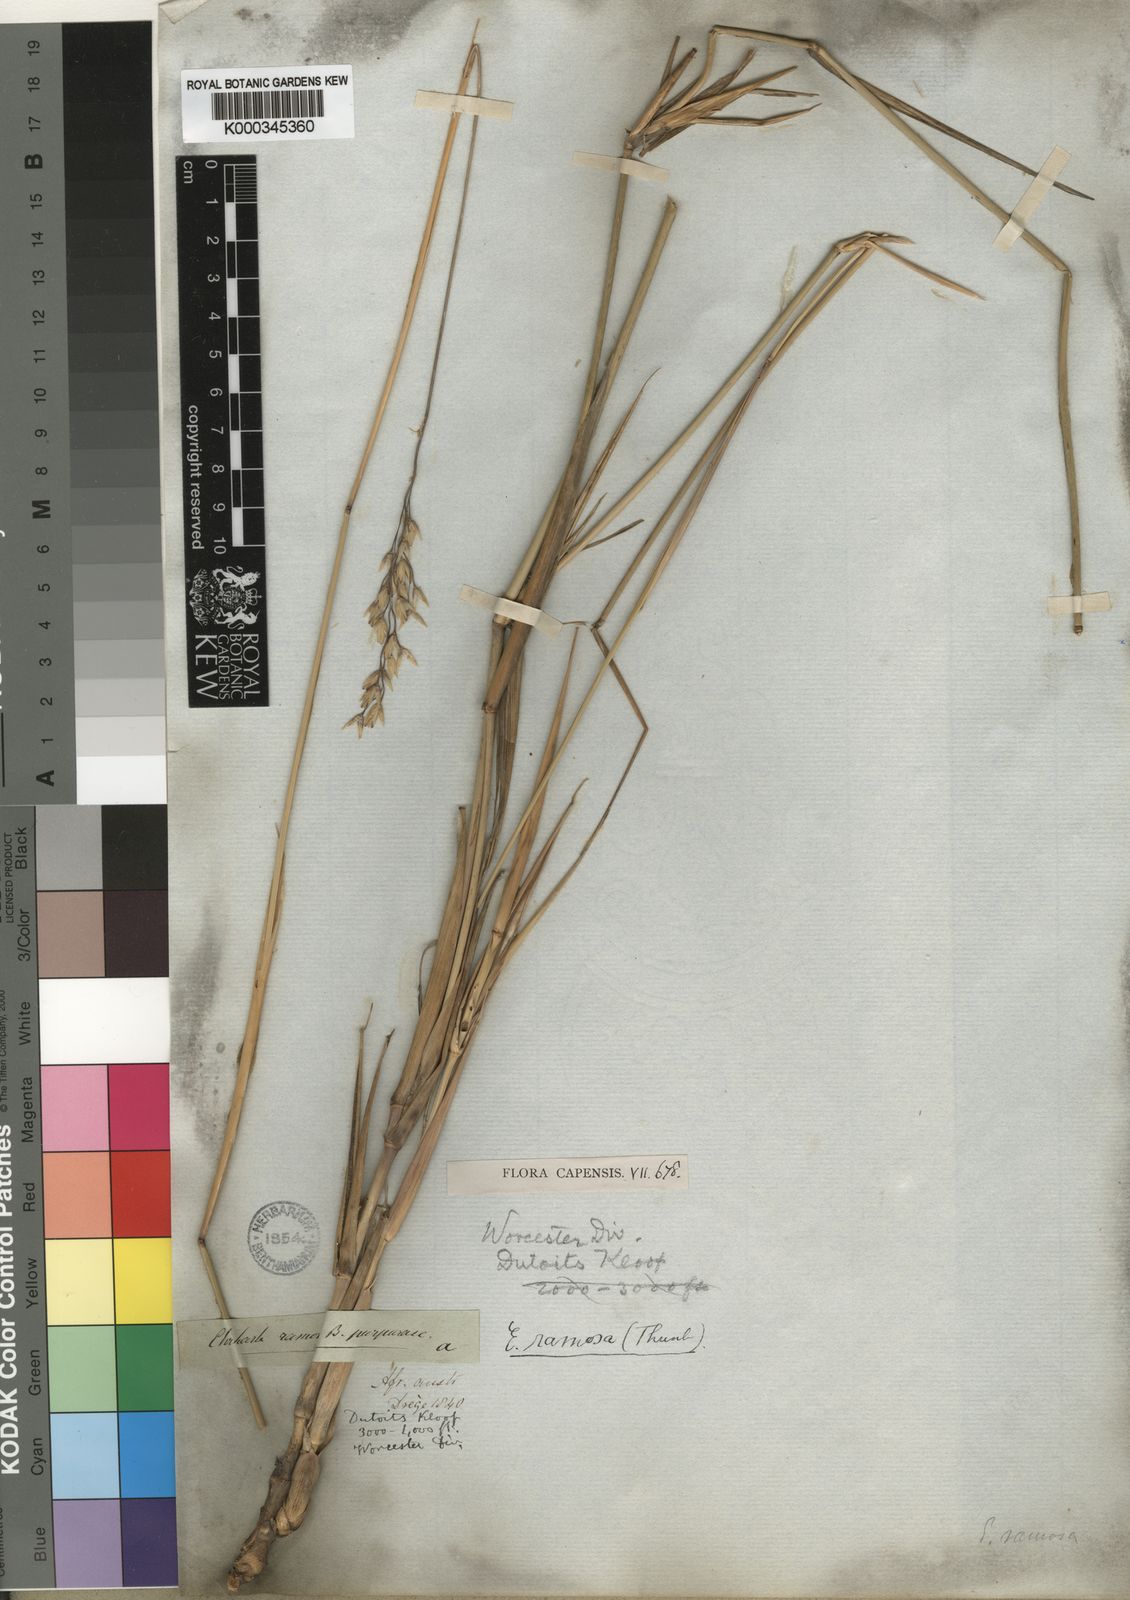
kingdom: Plantae
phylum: Tracheophyta
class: Liliopsida
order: Poales
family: Poaceae
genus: Ehrharta
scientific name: Ehrharta ramosa
